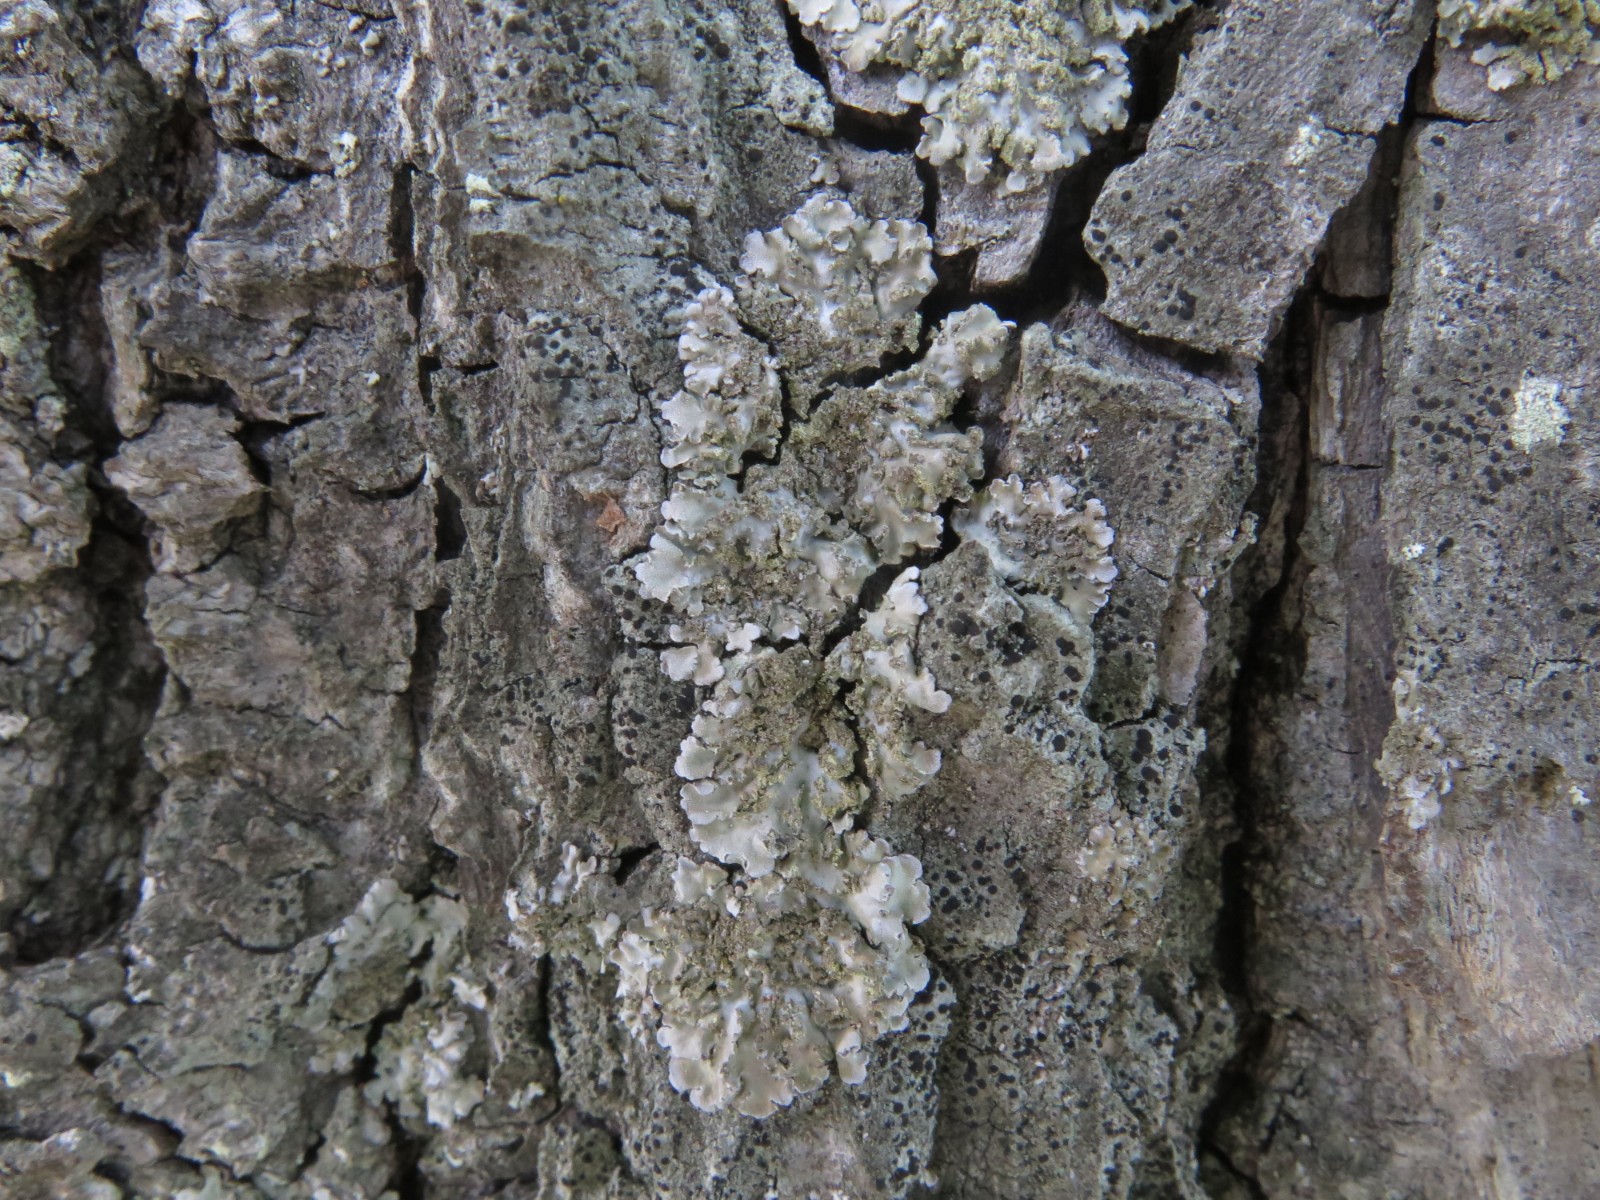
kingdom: Fungi
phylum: Ascomycota
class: Lecanoromycetes
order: Caliciales
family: Physciaceae
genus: Physconia
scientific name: Physconia enteroxantha
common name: grynet dugrosetlav
